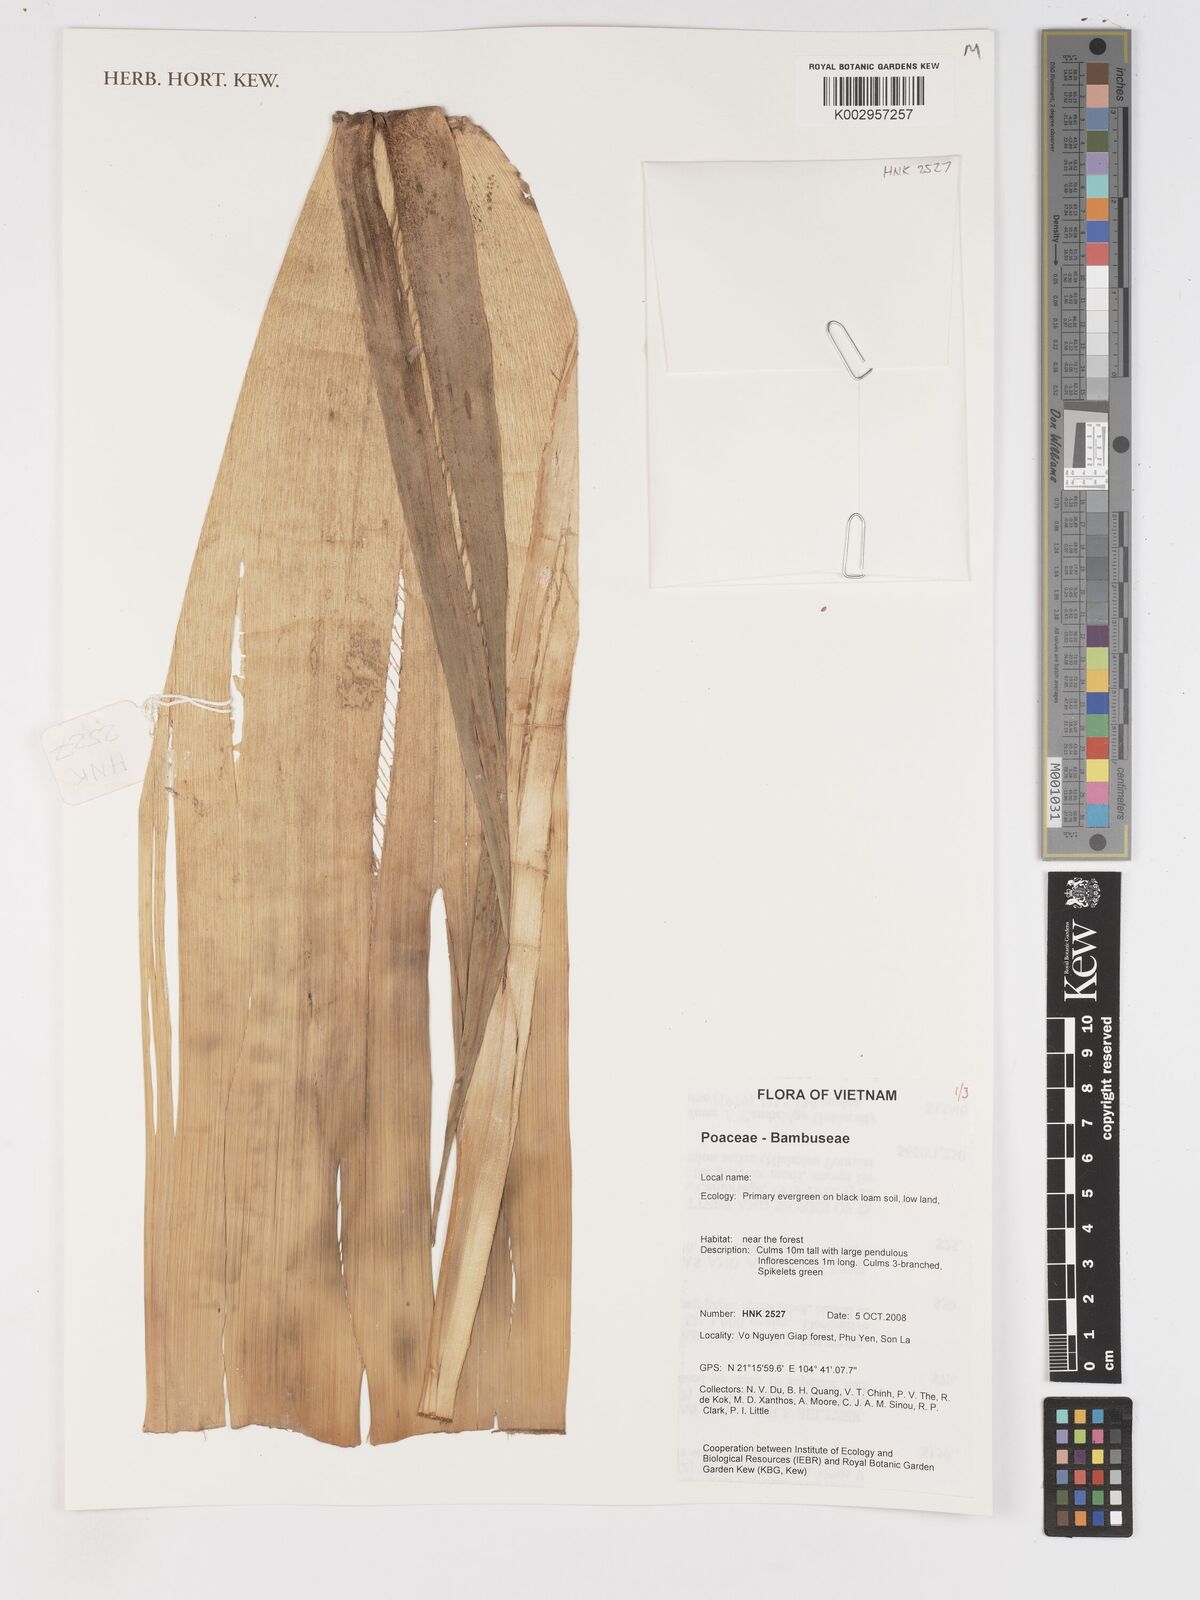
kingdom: Plantae
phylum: Tracheophyta
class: Liliopsida
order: Poales
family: Poaceae
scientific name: Poaceae
